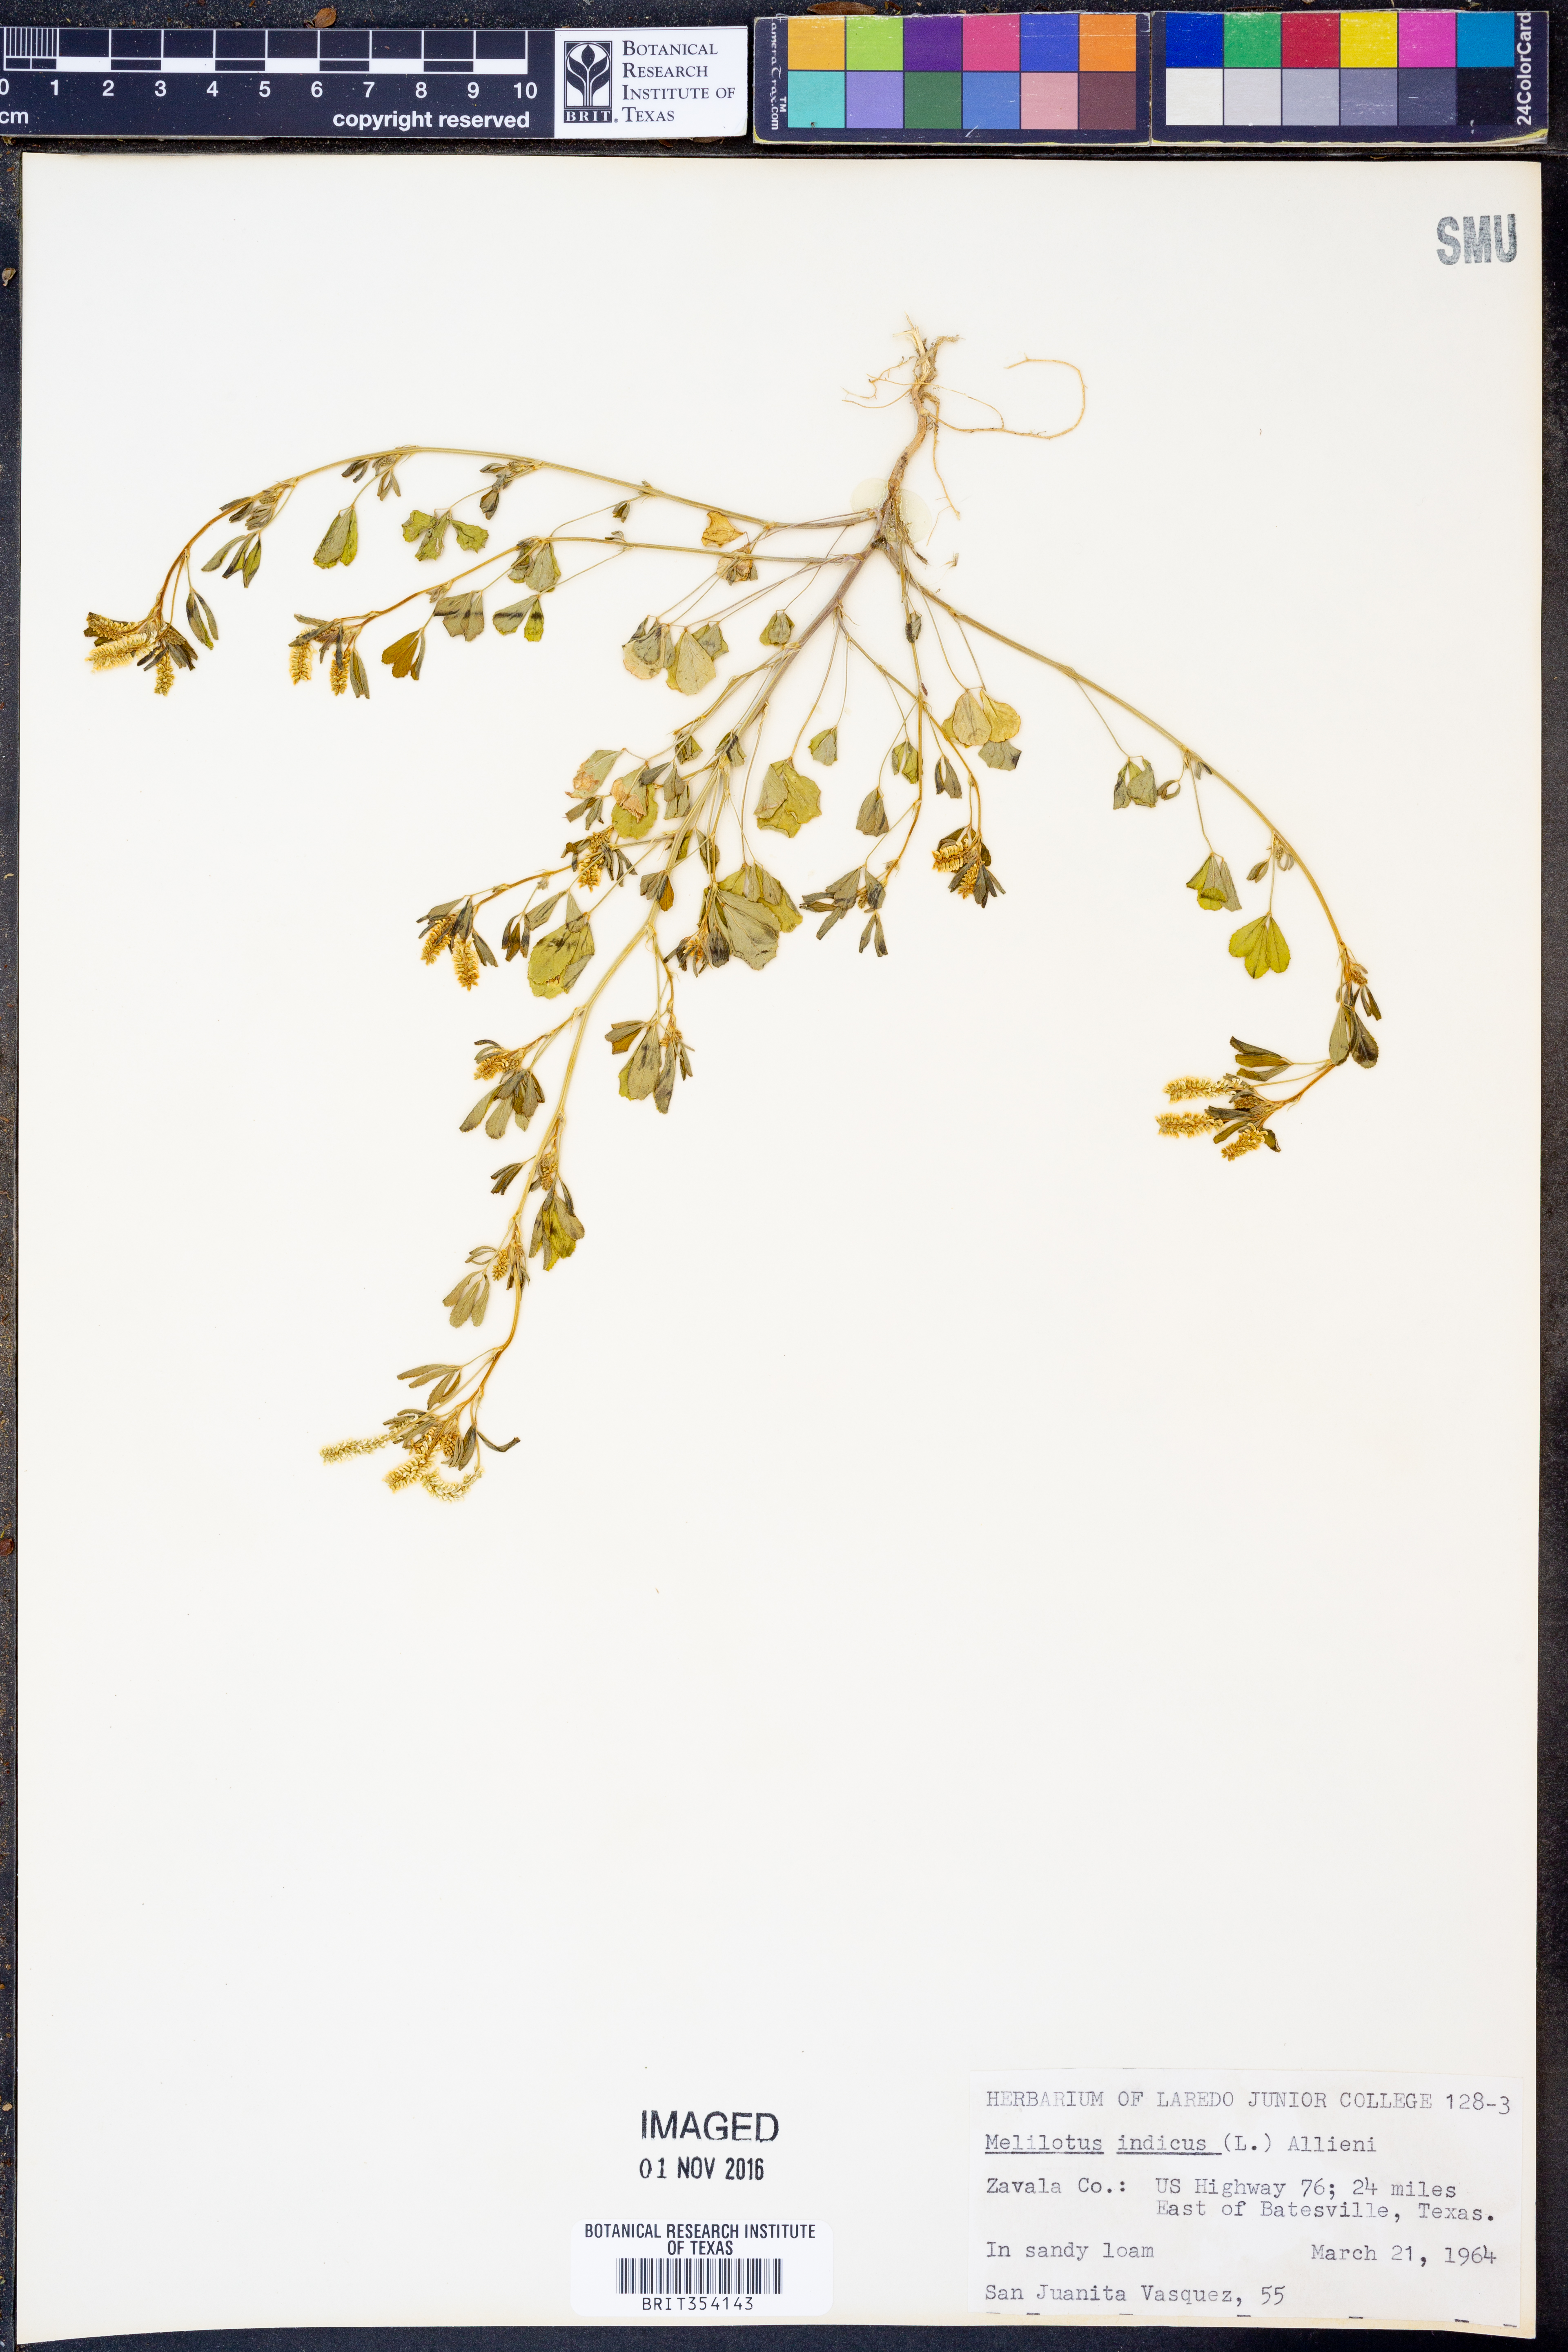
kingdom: Plantae
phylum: Tracheophyta
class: Magnoliopsida
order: Fabales
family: Fabaceae
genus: Melilotus
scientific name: Melilotus indicus
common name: Small melilot
